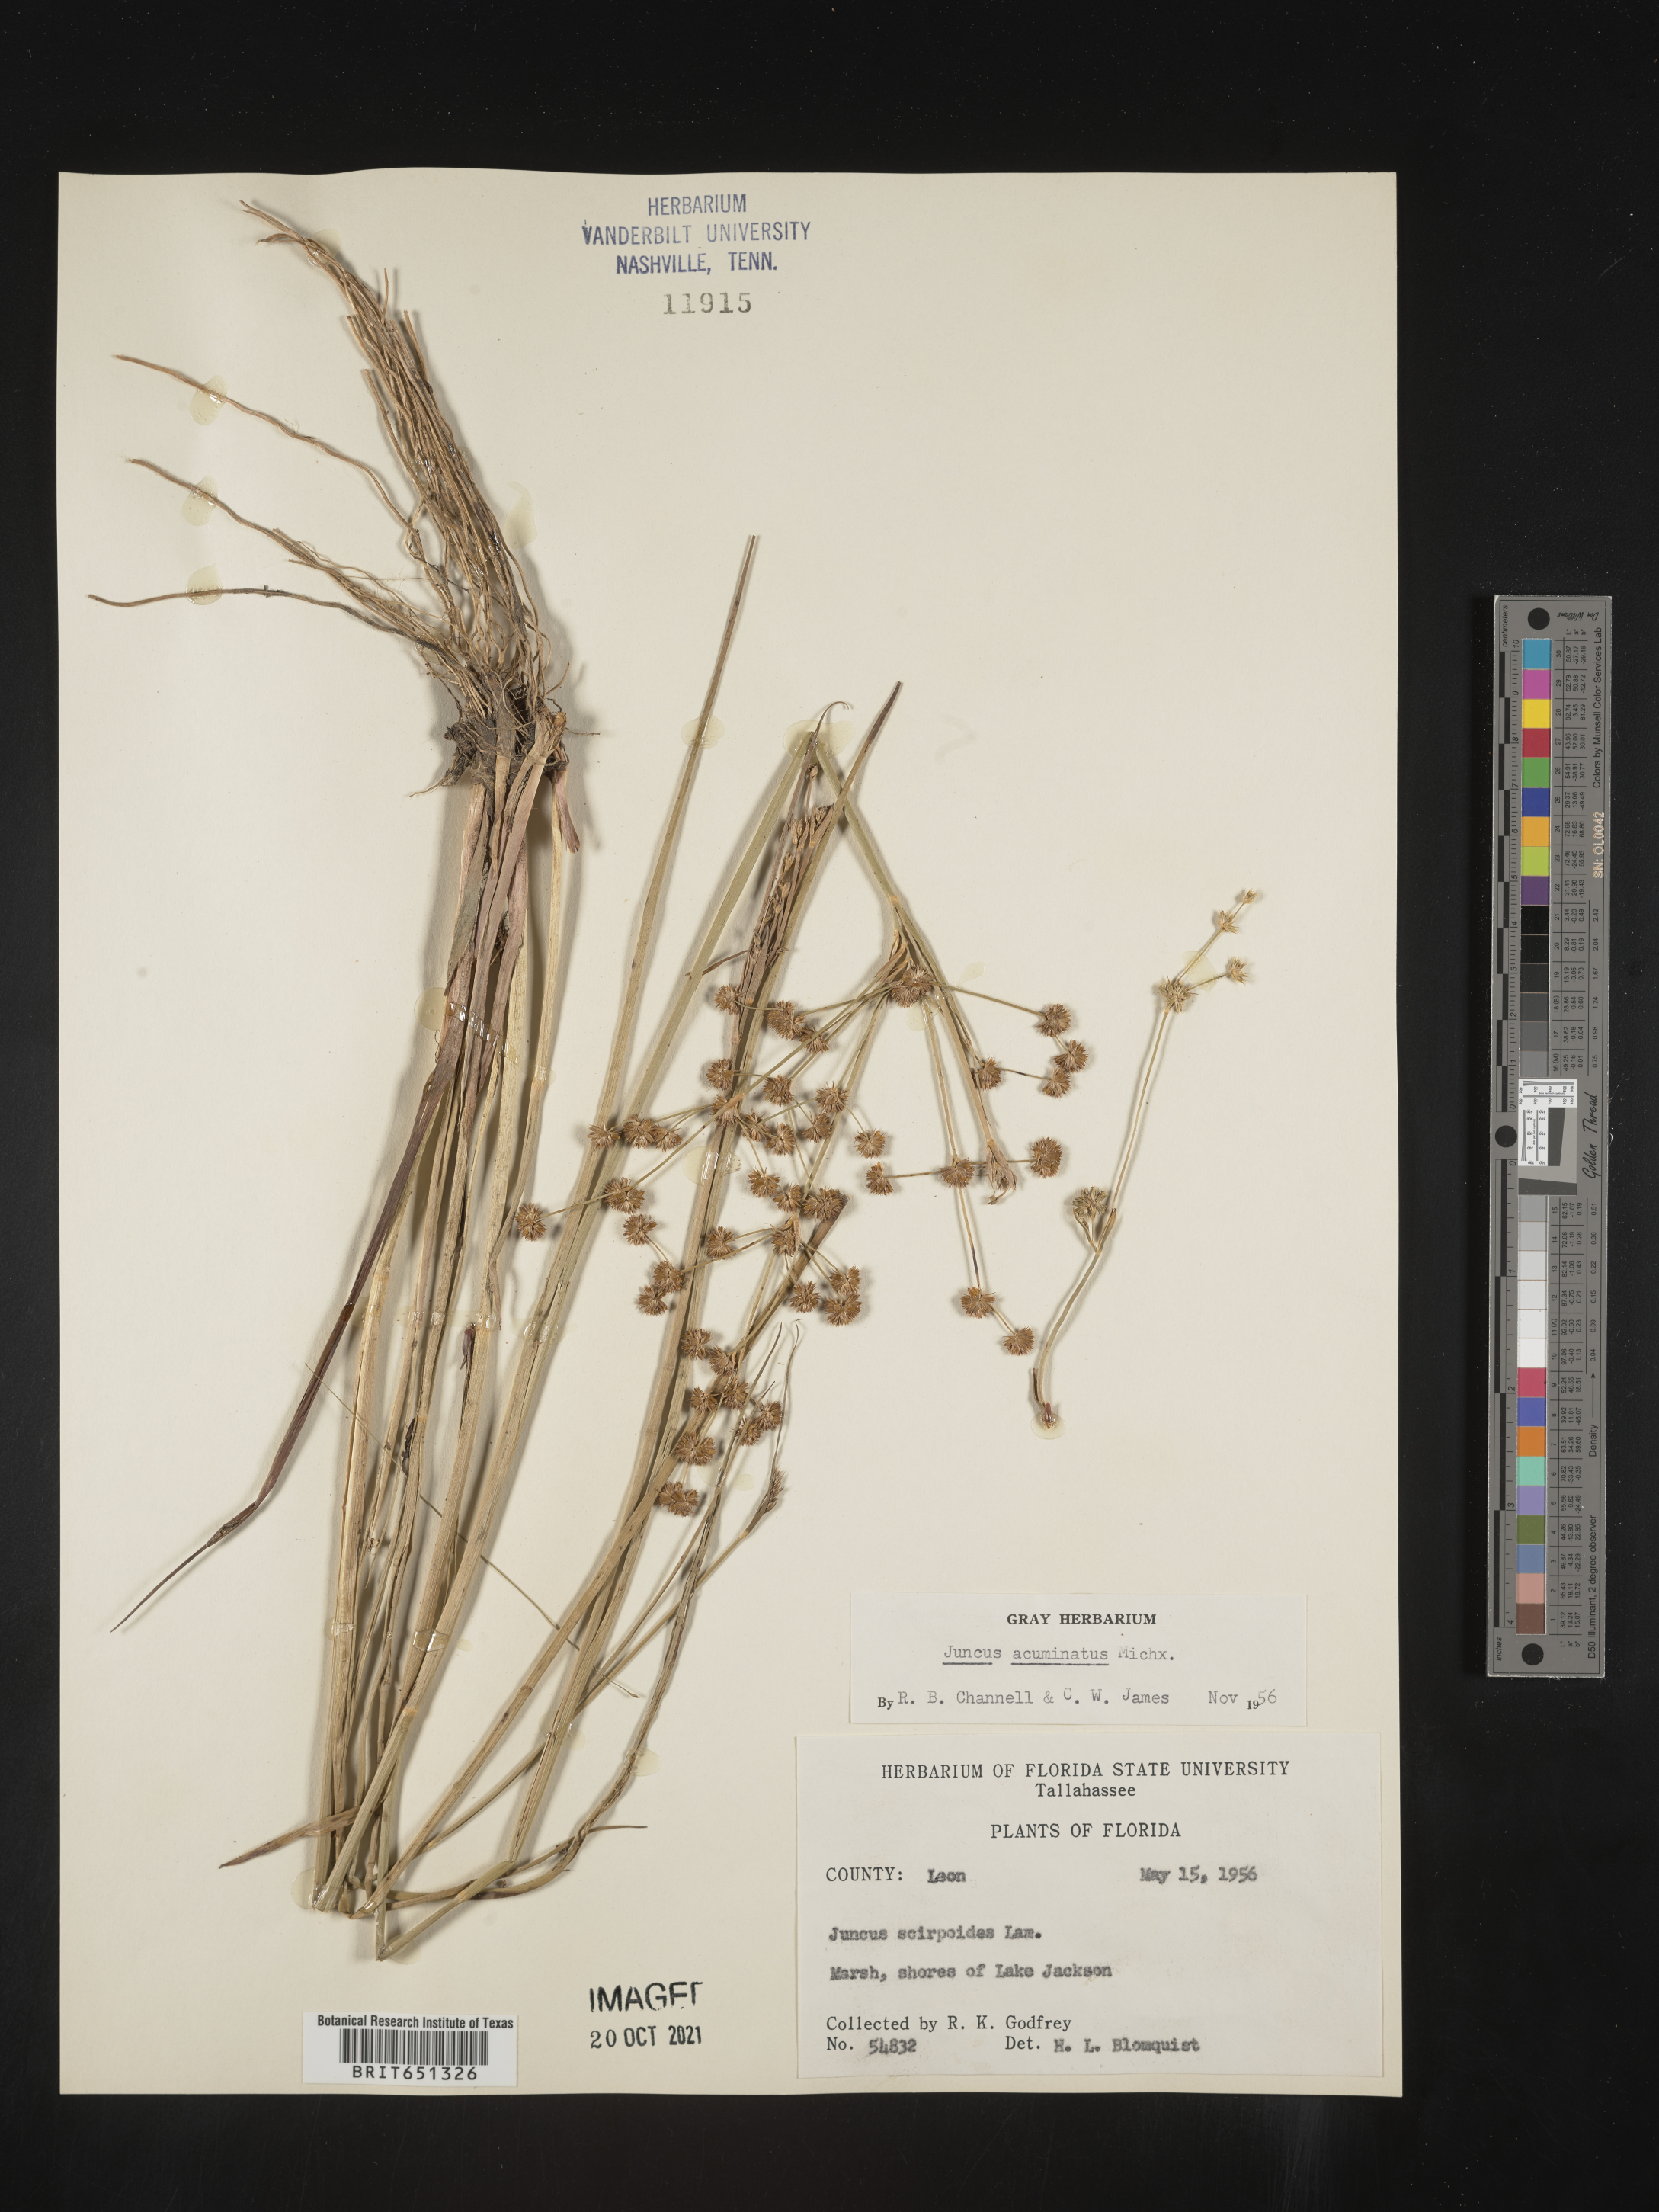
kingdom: Plantae
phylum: Tracheophyta
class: Liliopsida
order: Poales
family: Juncaceae
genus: Juncus
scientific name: Juncus acuminatus
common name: Knotty-leaved rush
